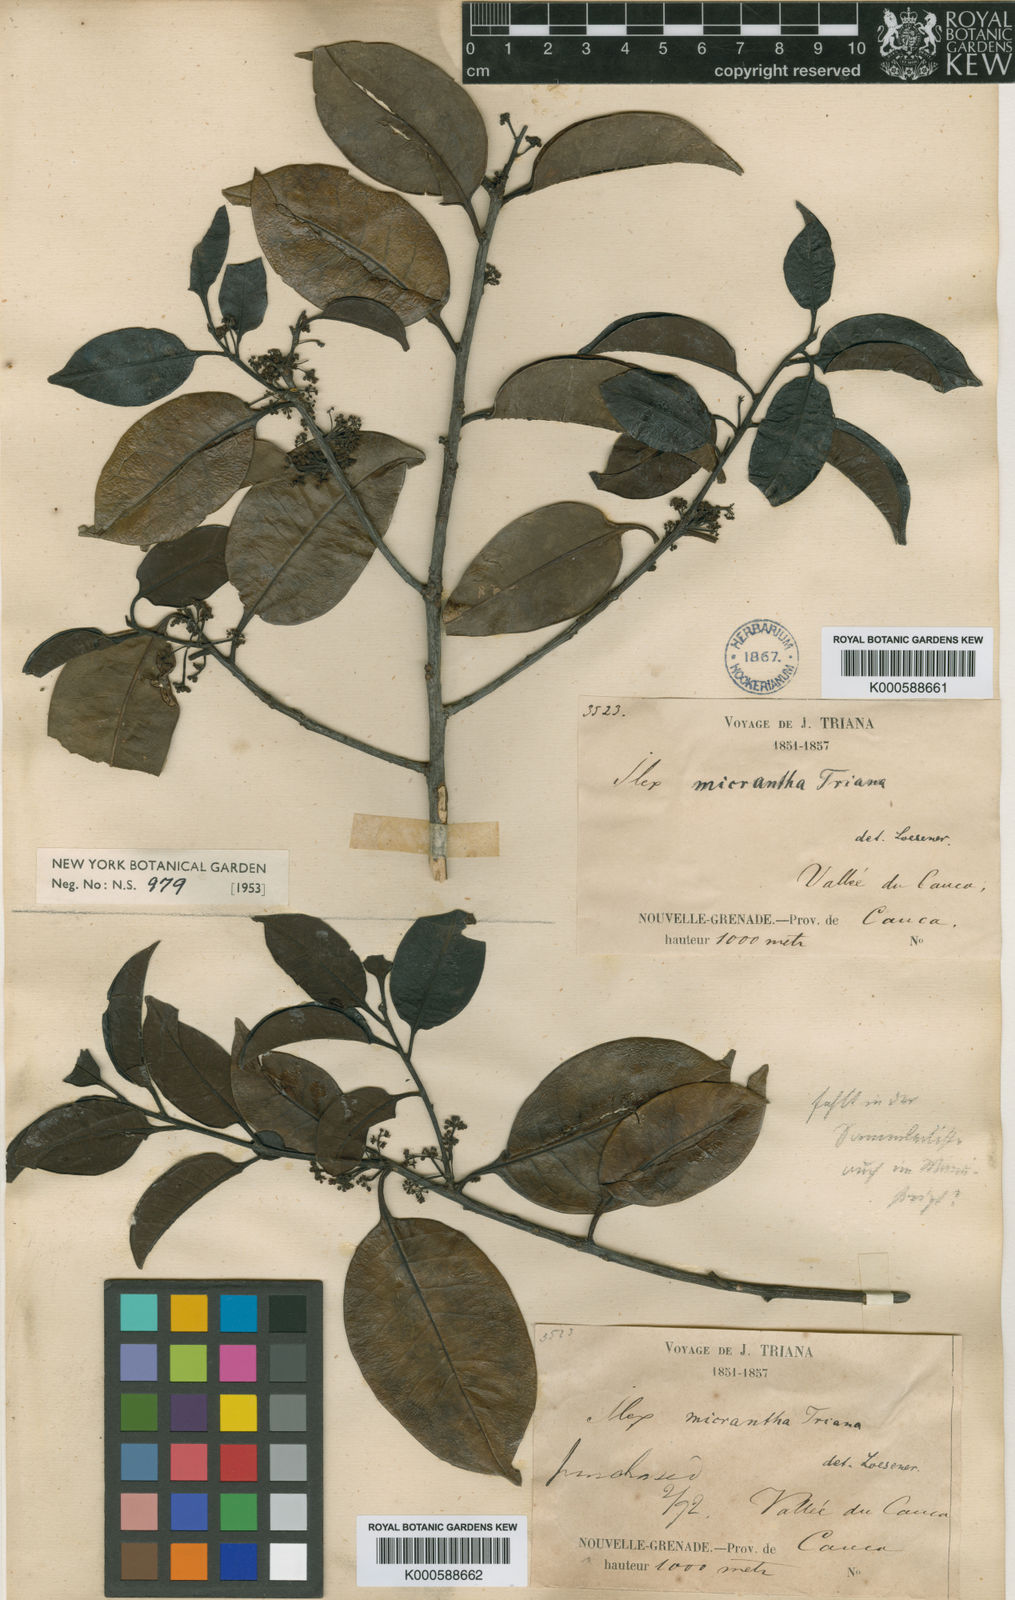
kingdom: Plantae
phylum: Tracheophyta
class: Magnoliopsida
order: Aquifoliales
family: Aquifoliaceae
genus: Ilex
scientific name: Ilex micrantha
